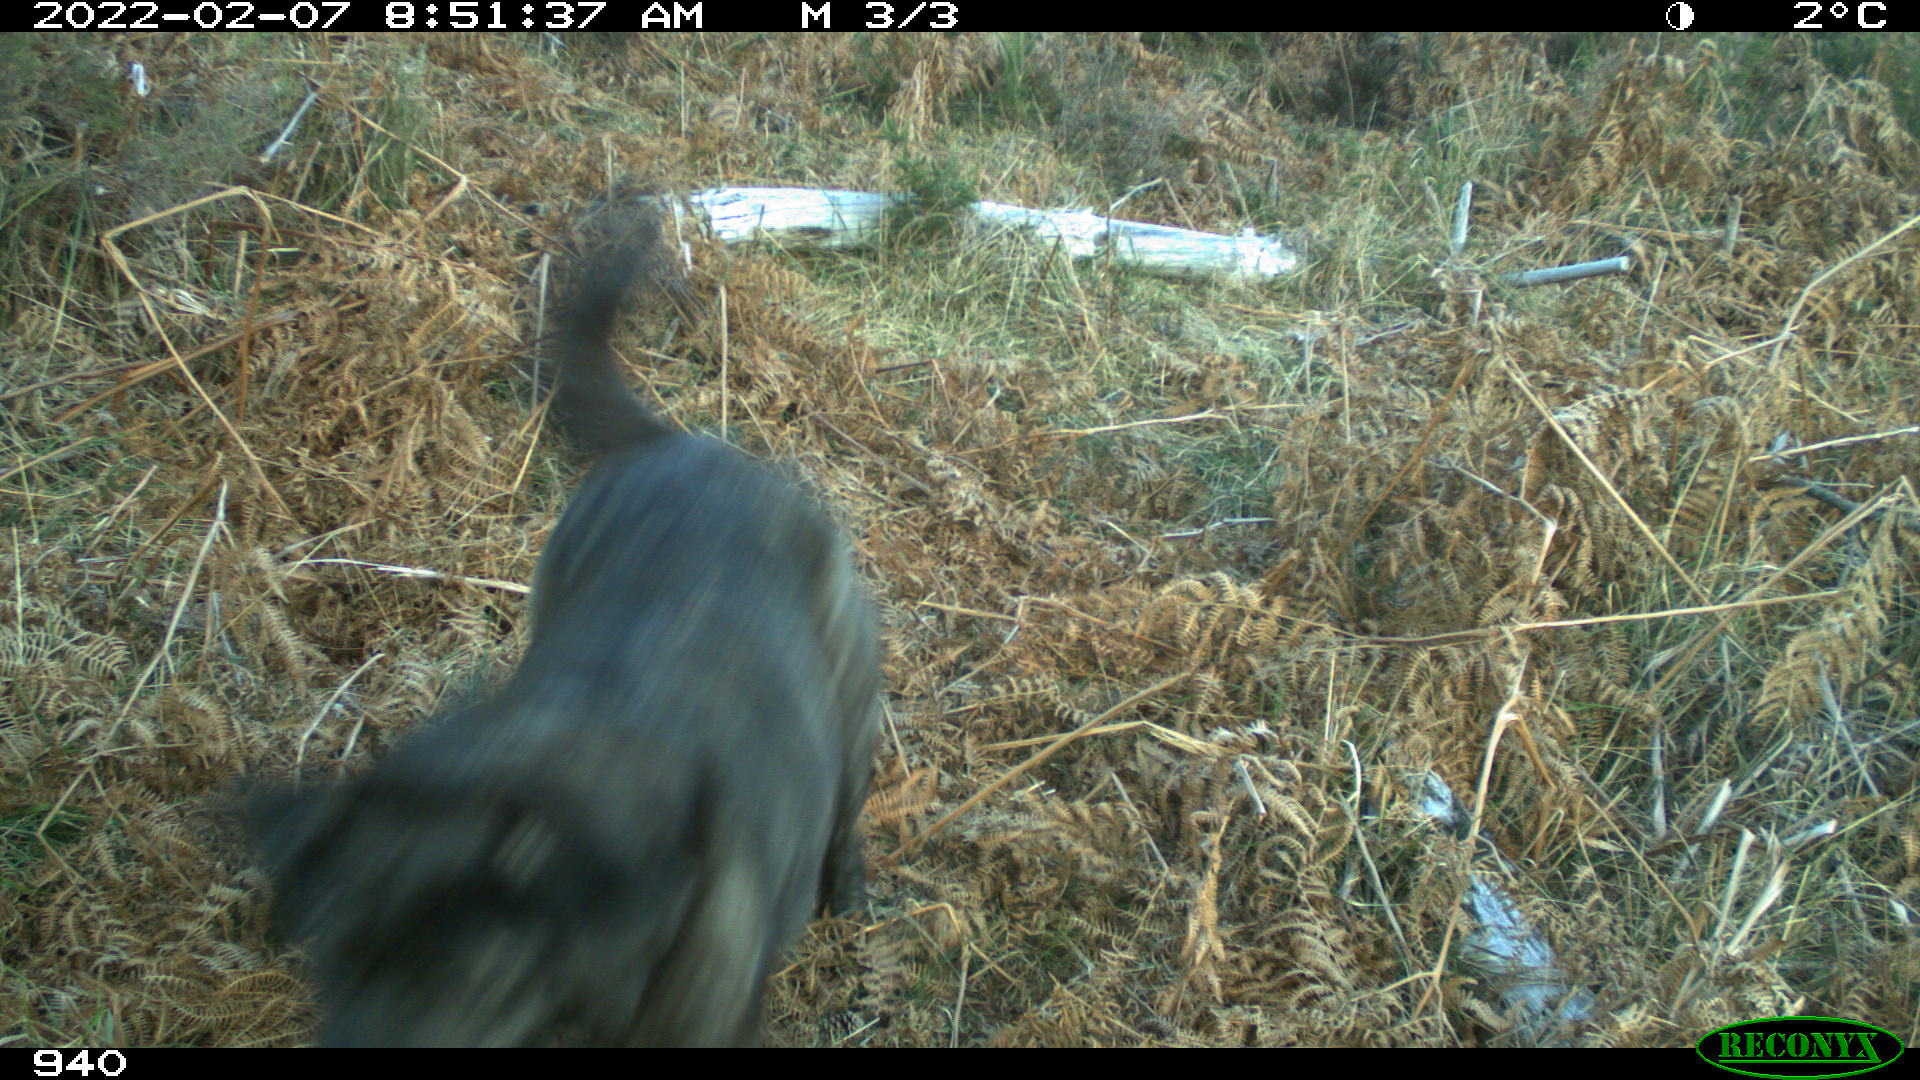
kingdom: Animalia
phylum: Chordata
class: Mammalia
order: Carnivora
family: Canidae
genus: Canis
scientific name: Canis lupus
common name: Gray wolf
